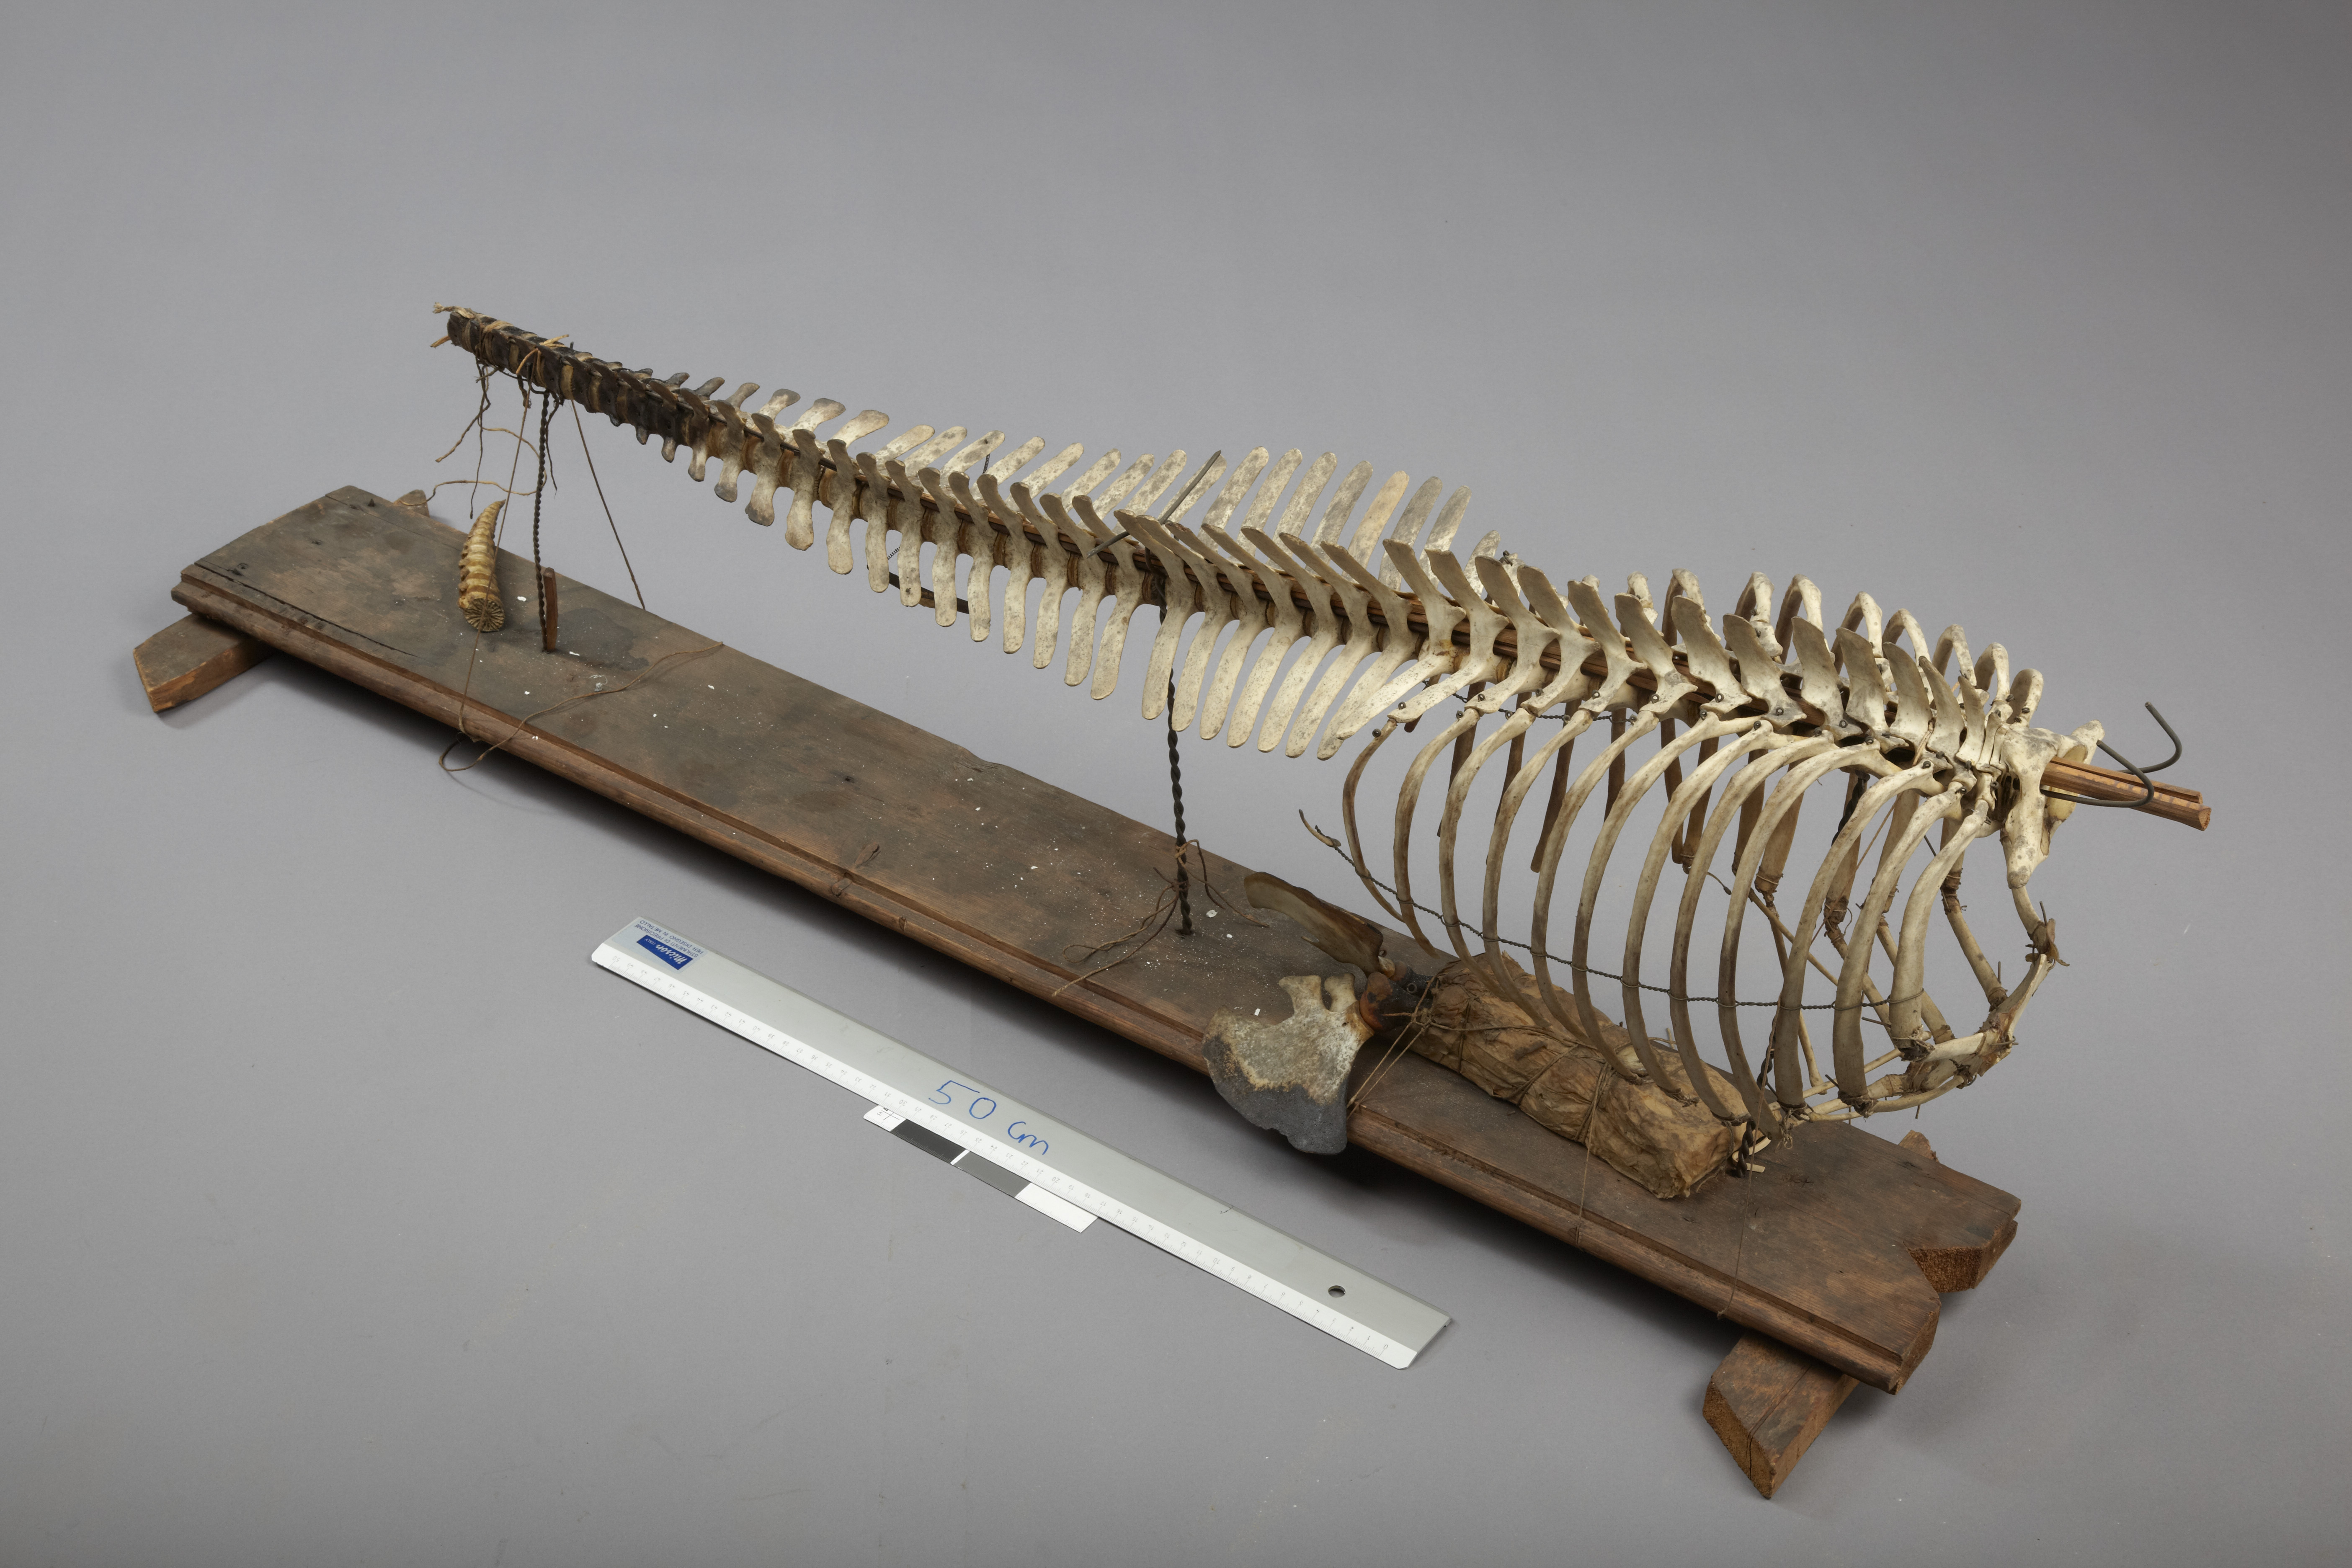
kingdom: Animalia
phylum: Chordata
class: Mammalia
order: Cetacea
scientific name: Cetacea
